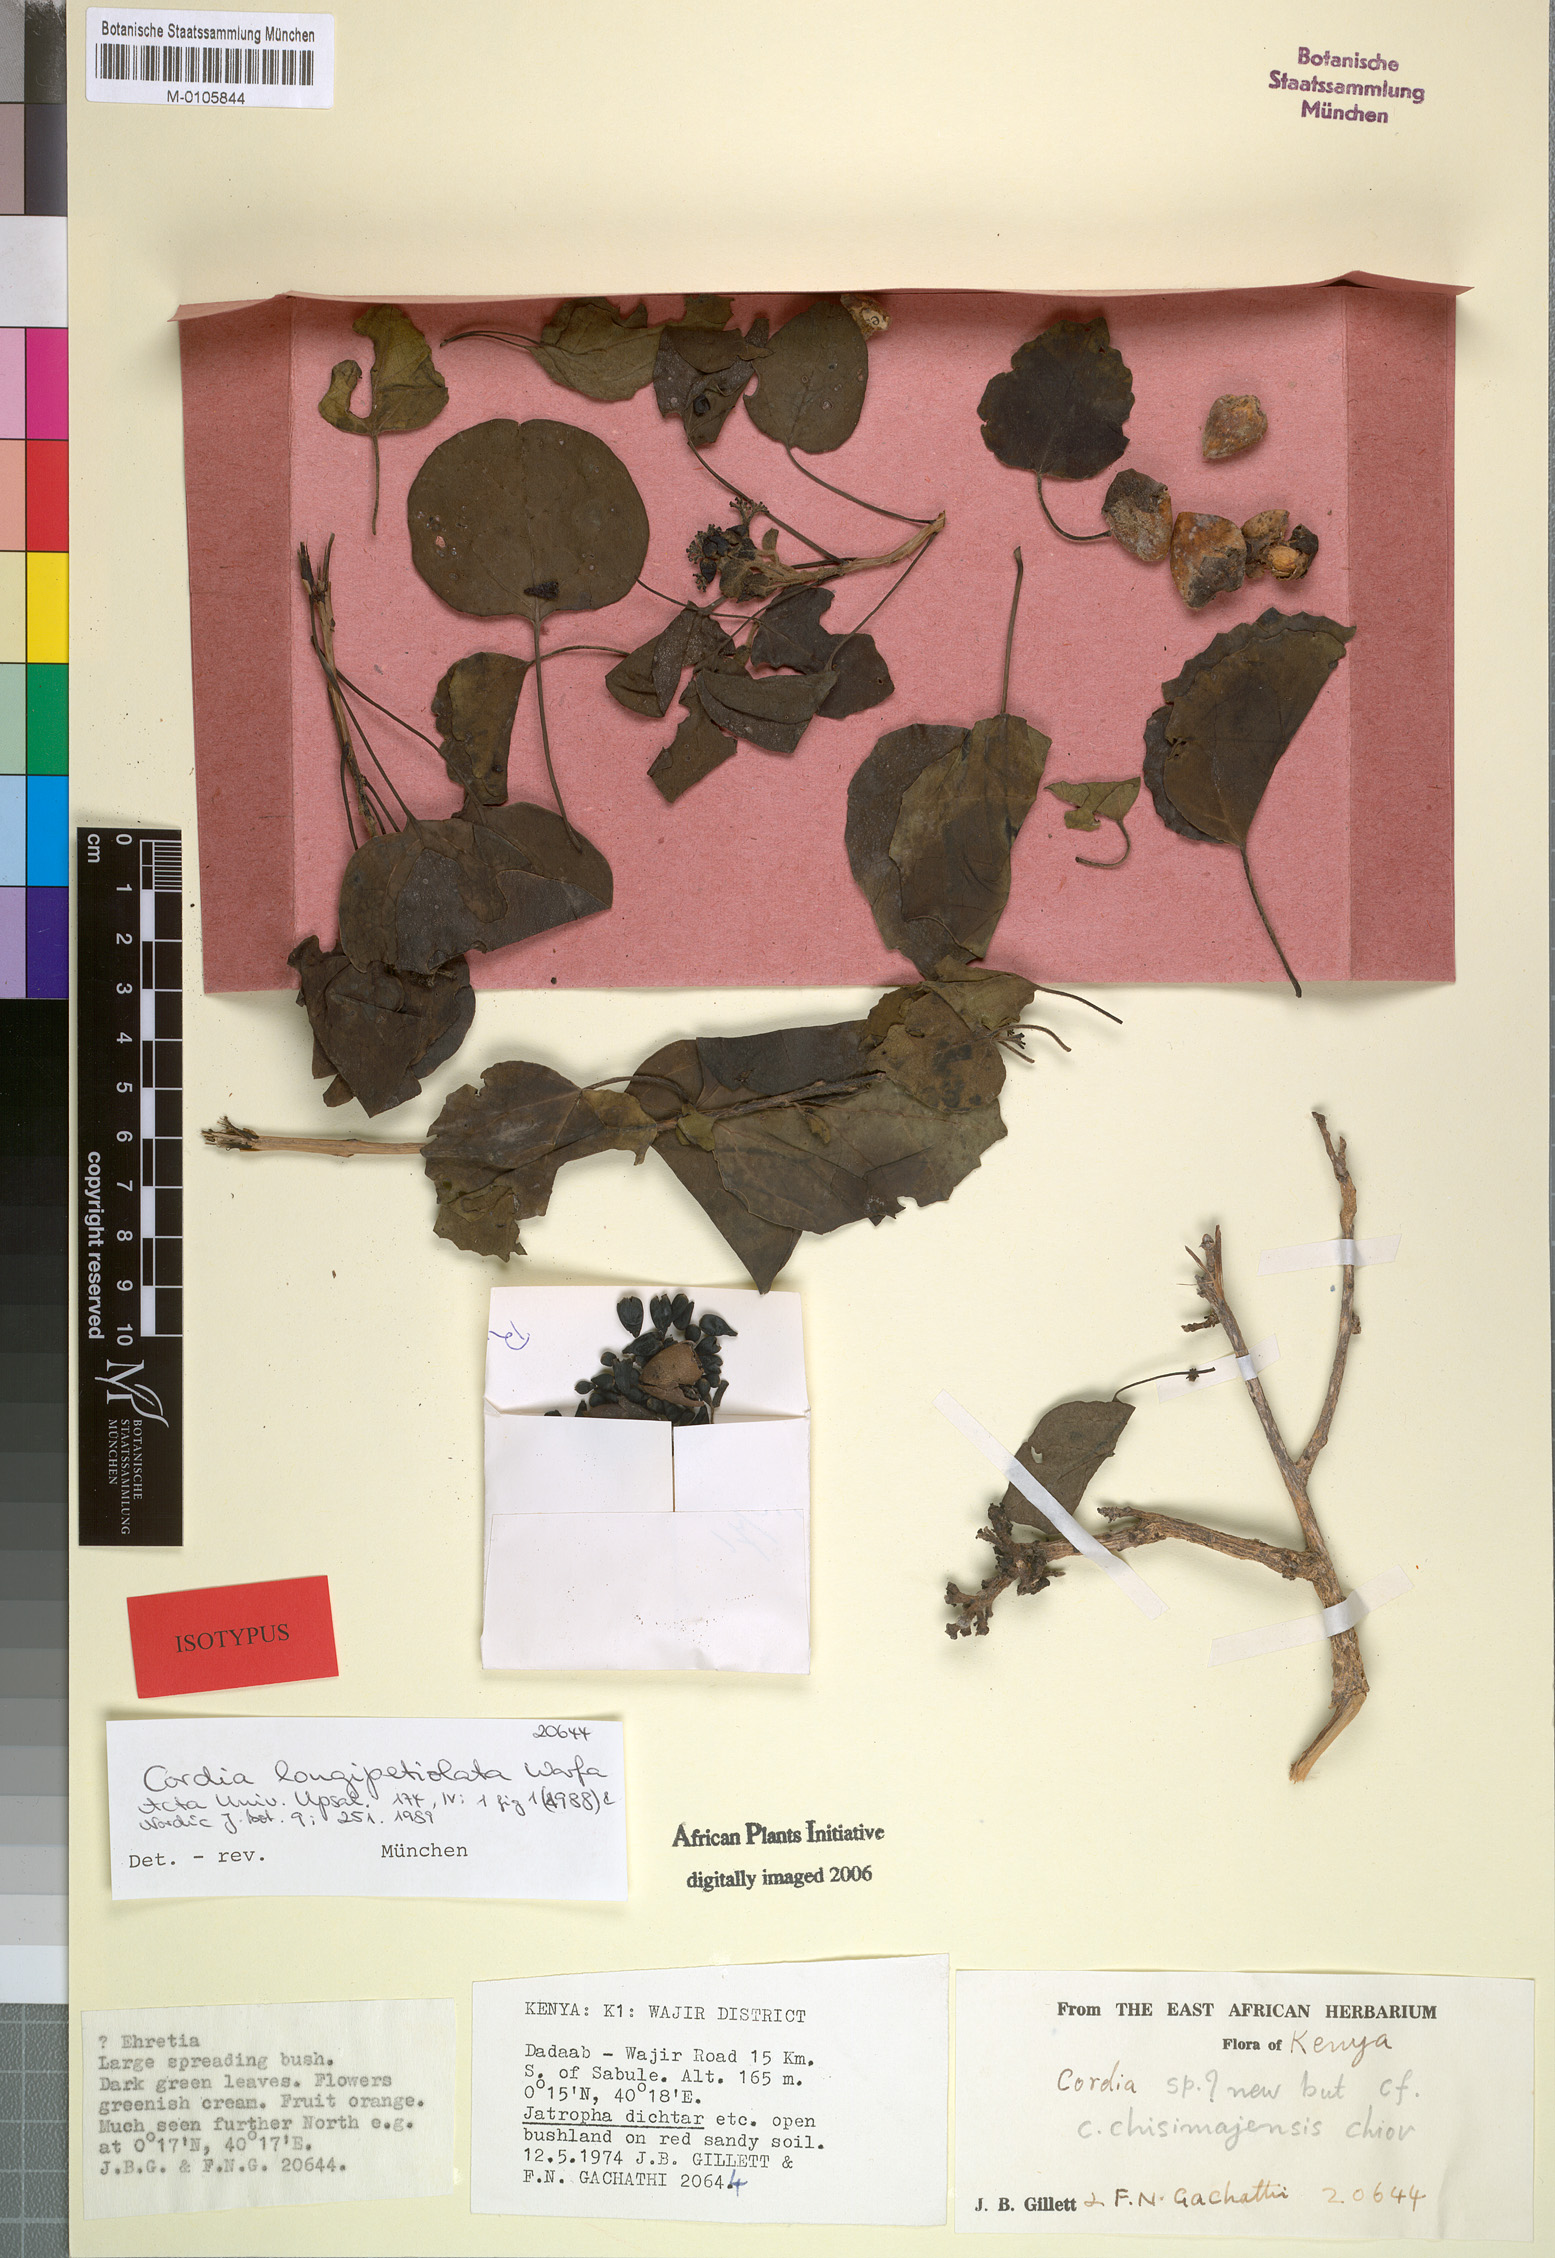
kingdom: Plantae
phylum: Tracheophyta
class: Magnoliopsida
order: Boraginales
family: Cordiaceae
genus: Cordia
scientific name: Cordia longipetiolata
